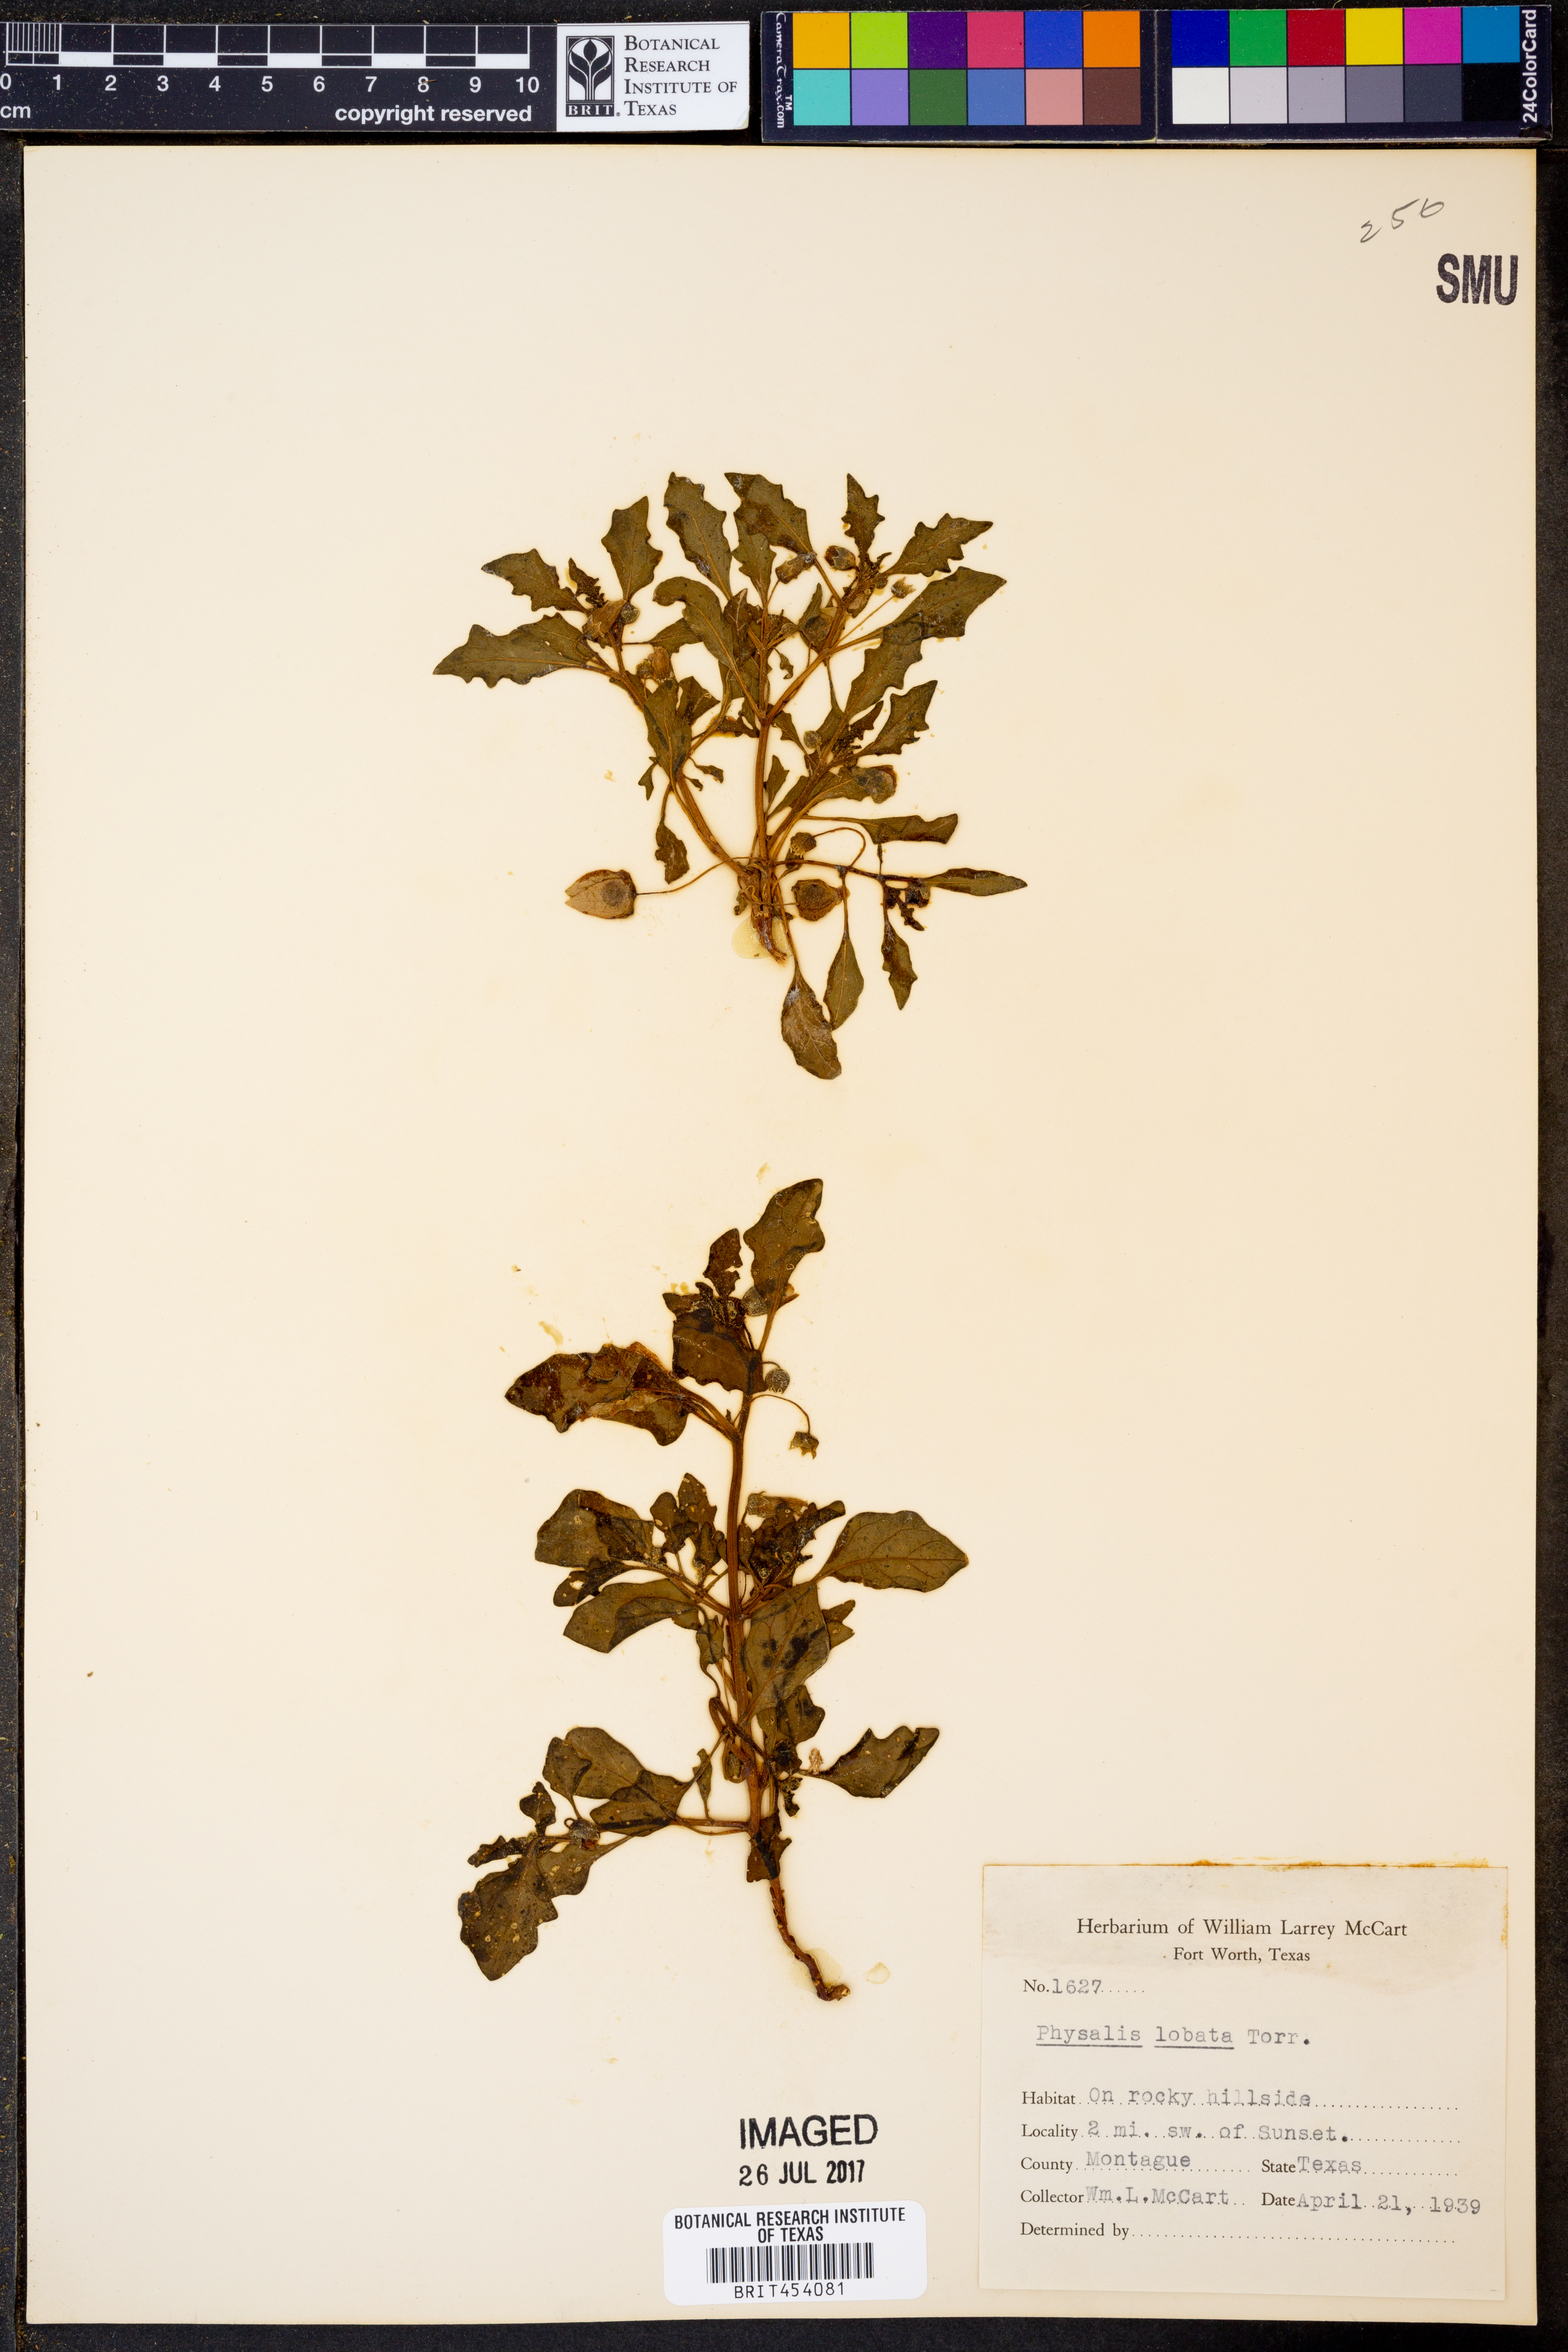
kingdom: Plantae
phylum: Tracheophyta
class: Magnoliopsida
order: Solanales
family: Solanaceae
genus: Quincula
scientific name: Quincula lobata
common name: Purple-ground-cherry
